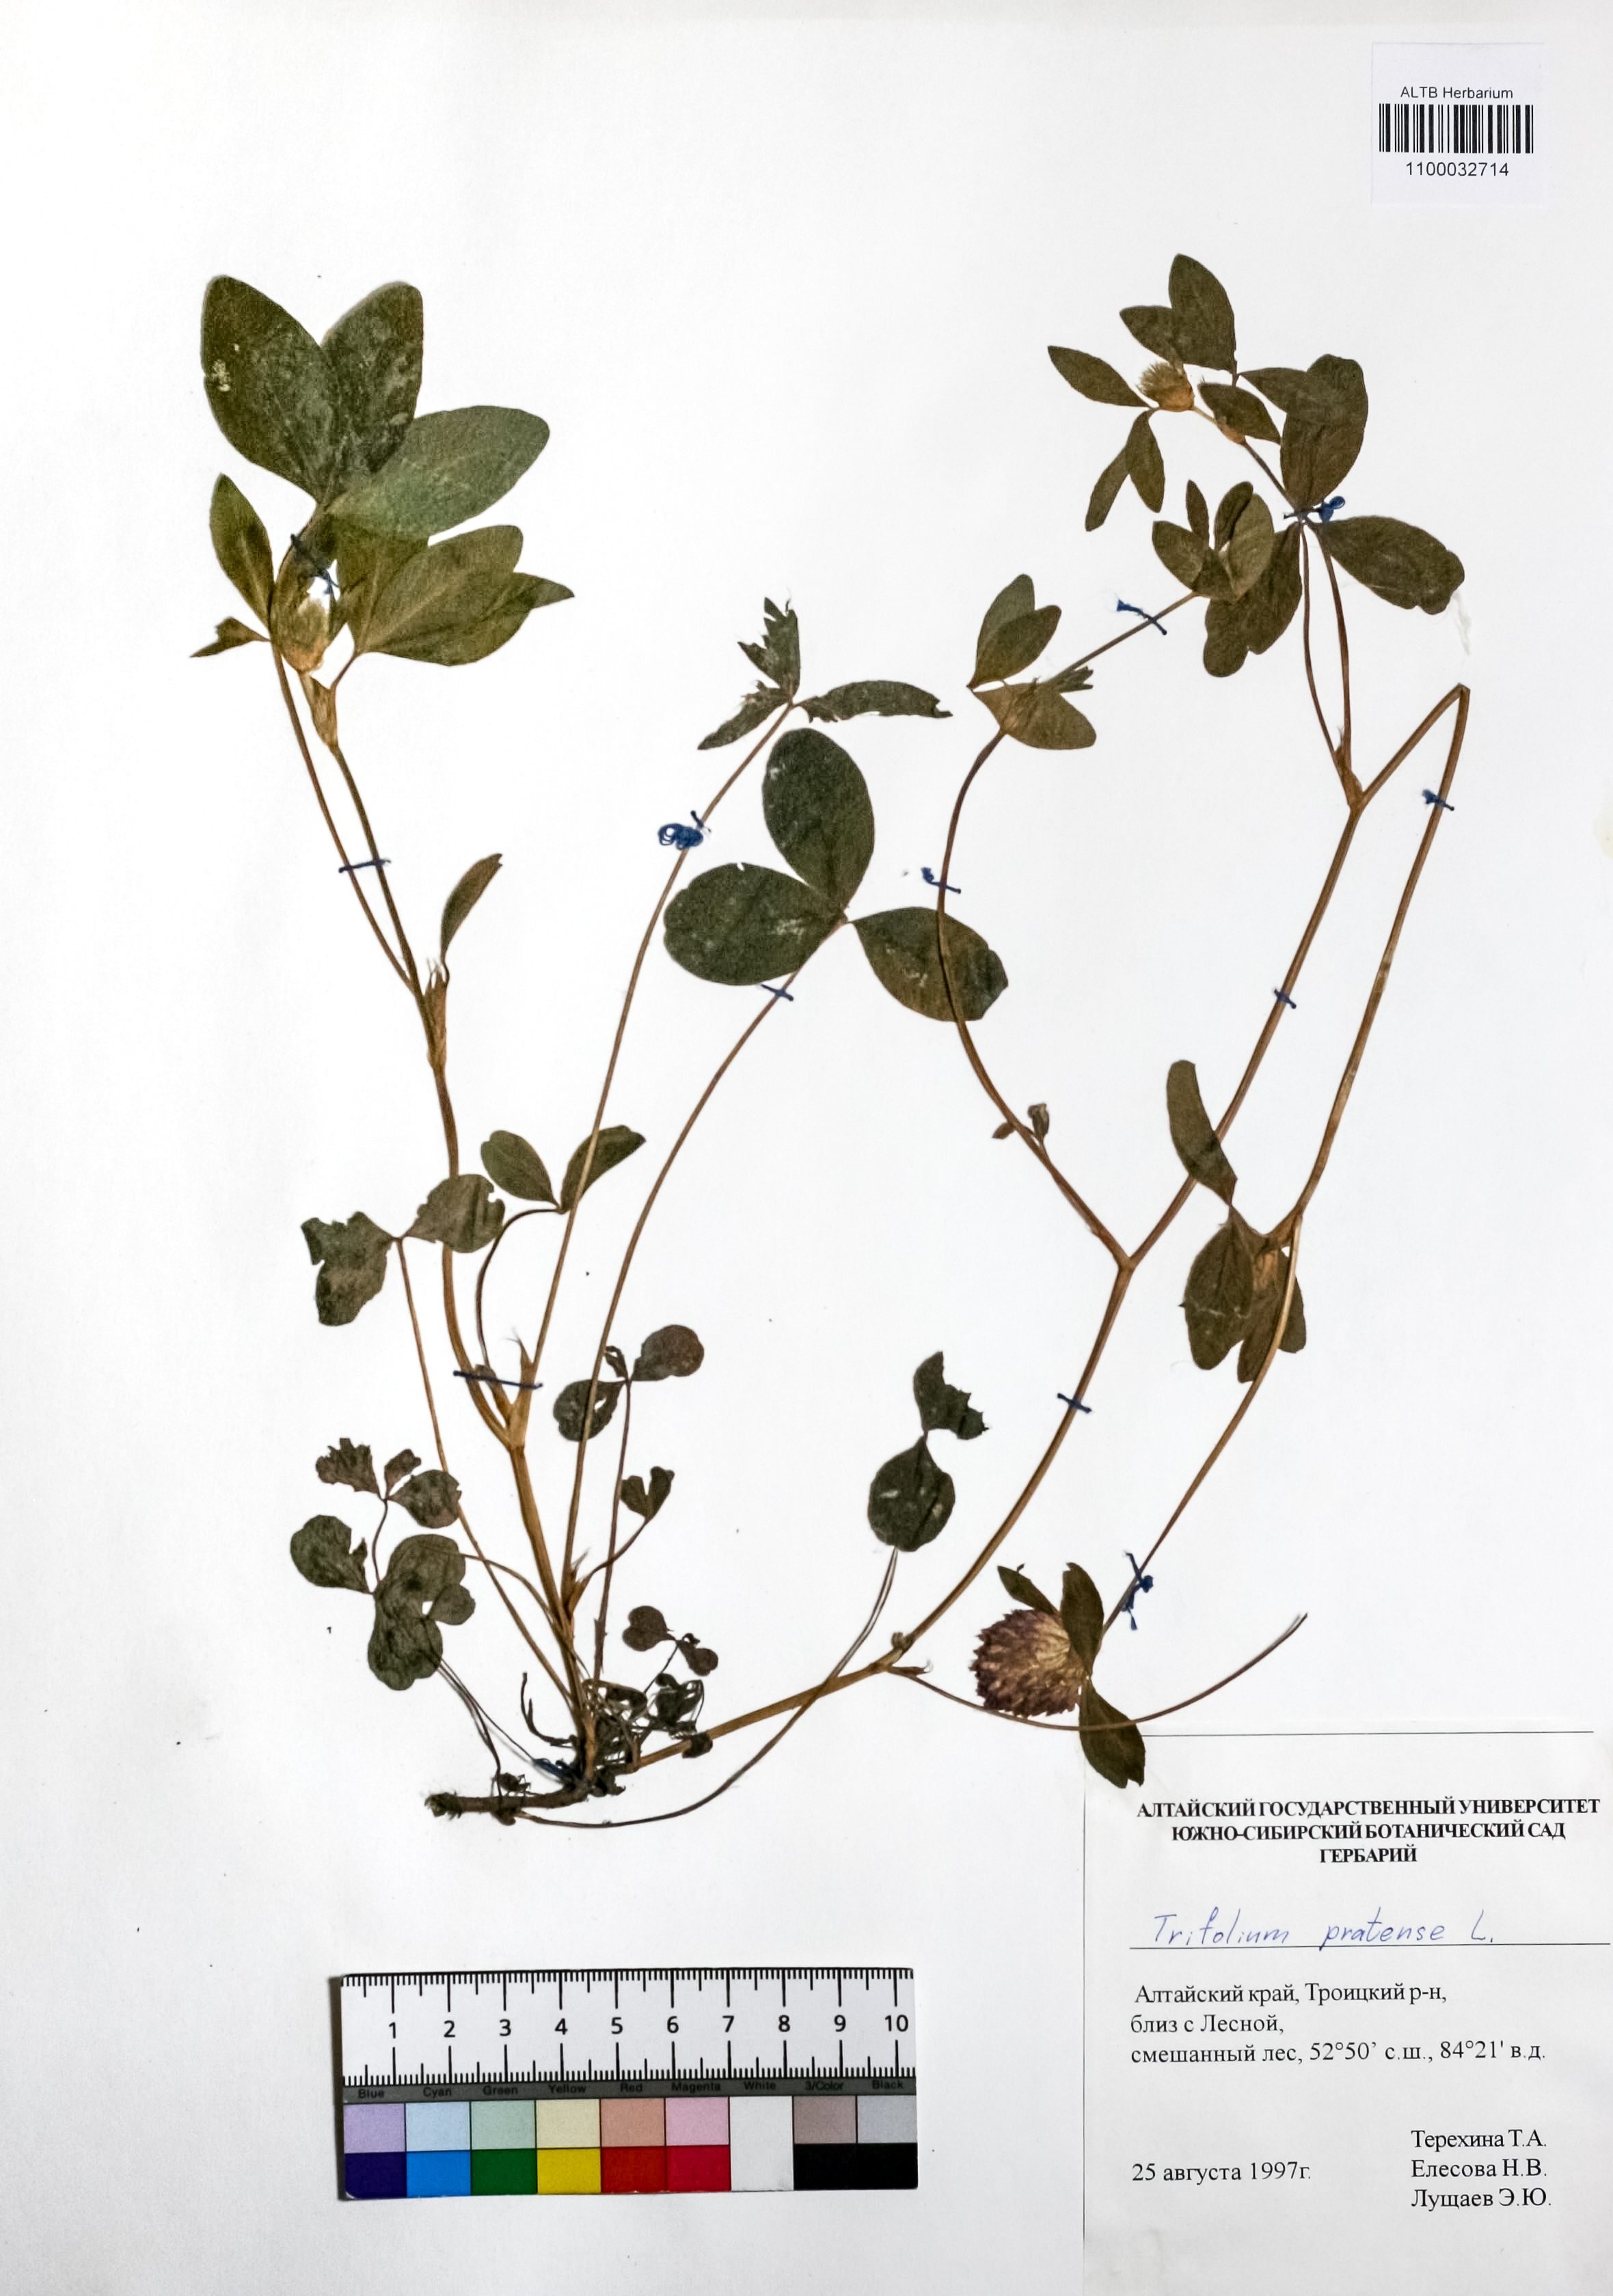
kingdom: Plantae
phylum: Tracheophyta
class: Magnoliopsida
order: Fabales
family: Fabaceae
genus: Trifolium
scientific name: Trifolium pratense
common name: Red clover
